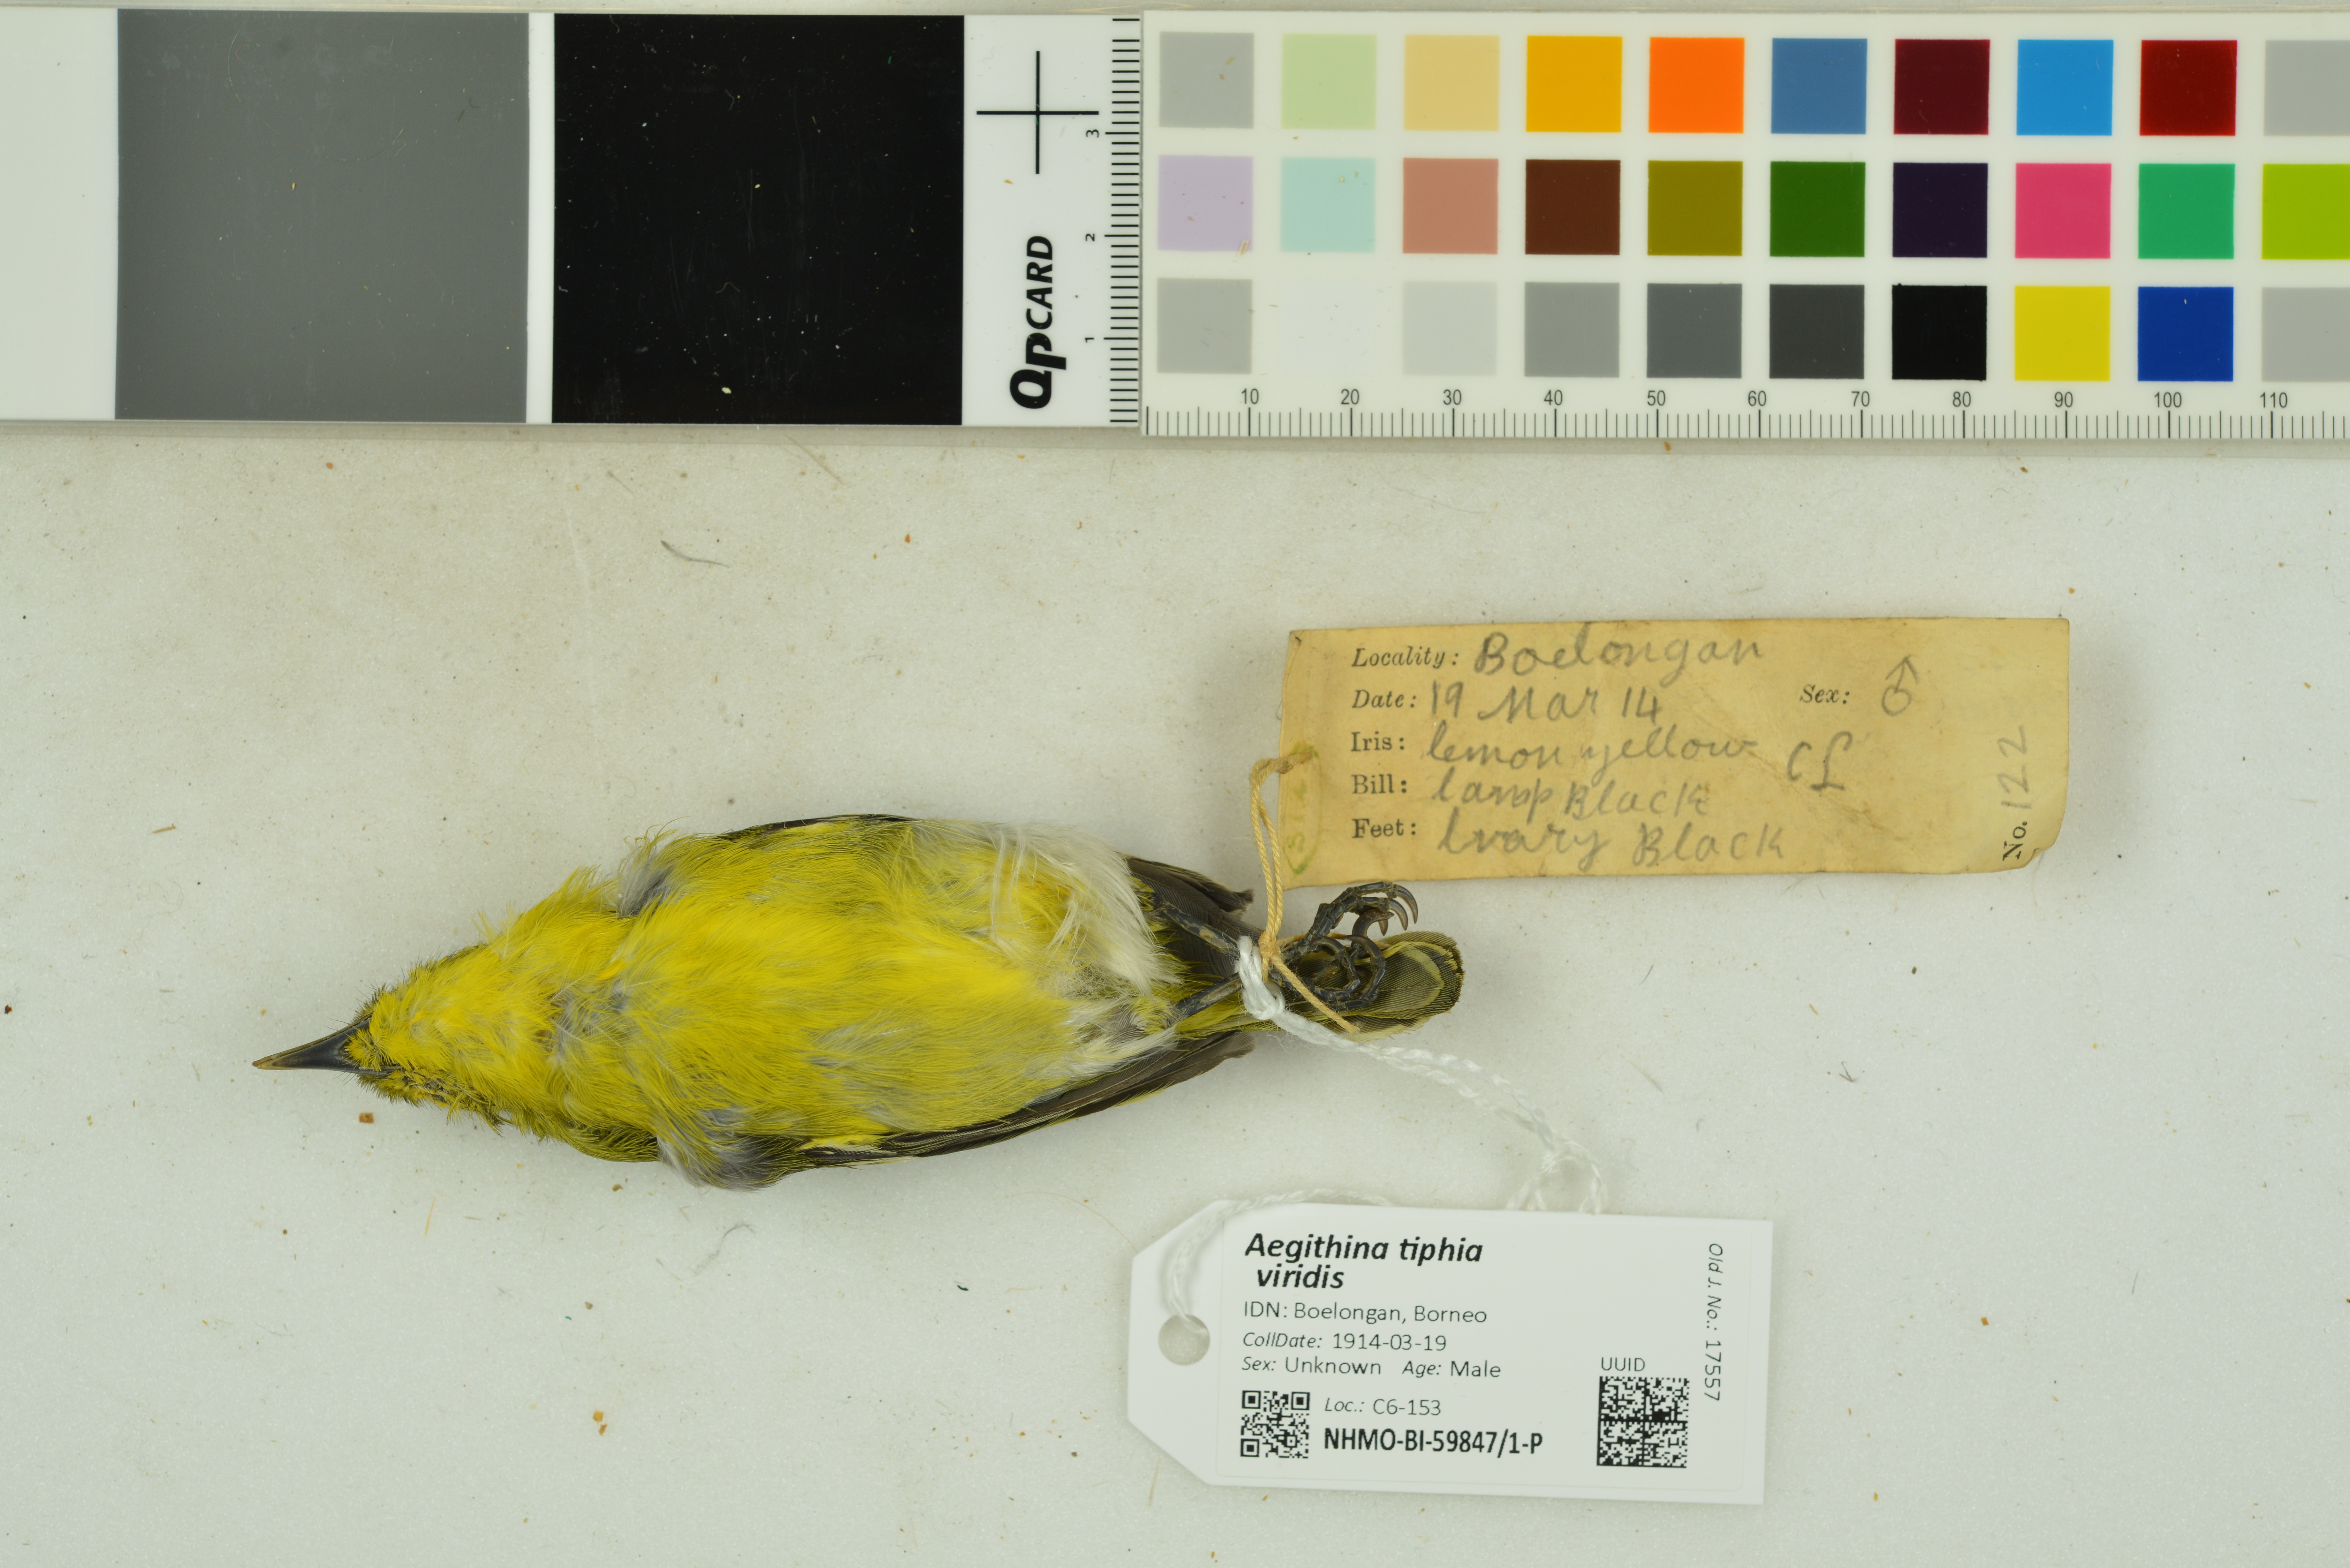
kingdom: Animalia
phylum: Chordata
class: Aves
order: Passeriformes
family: Aegithinidae
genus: Aegithina
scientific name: Aegithina tiphia
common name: Common iora
